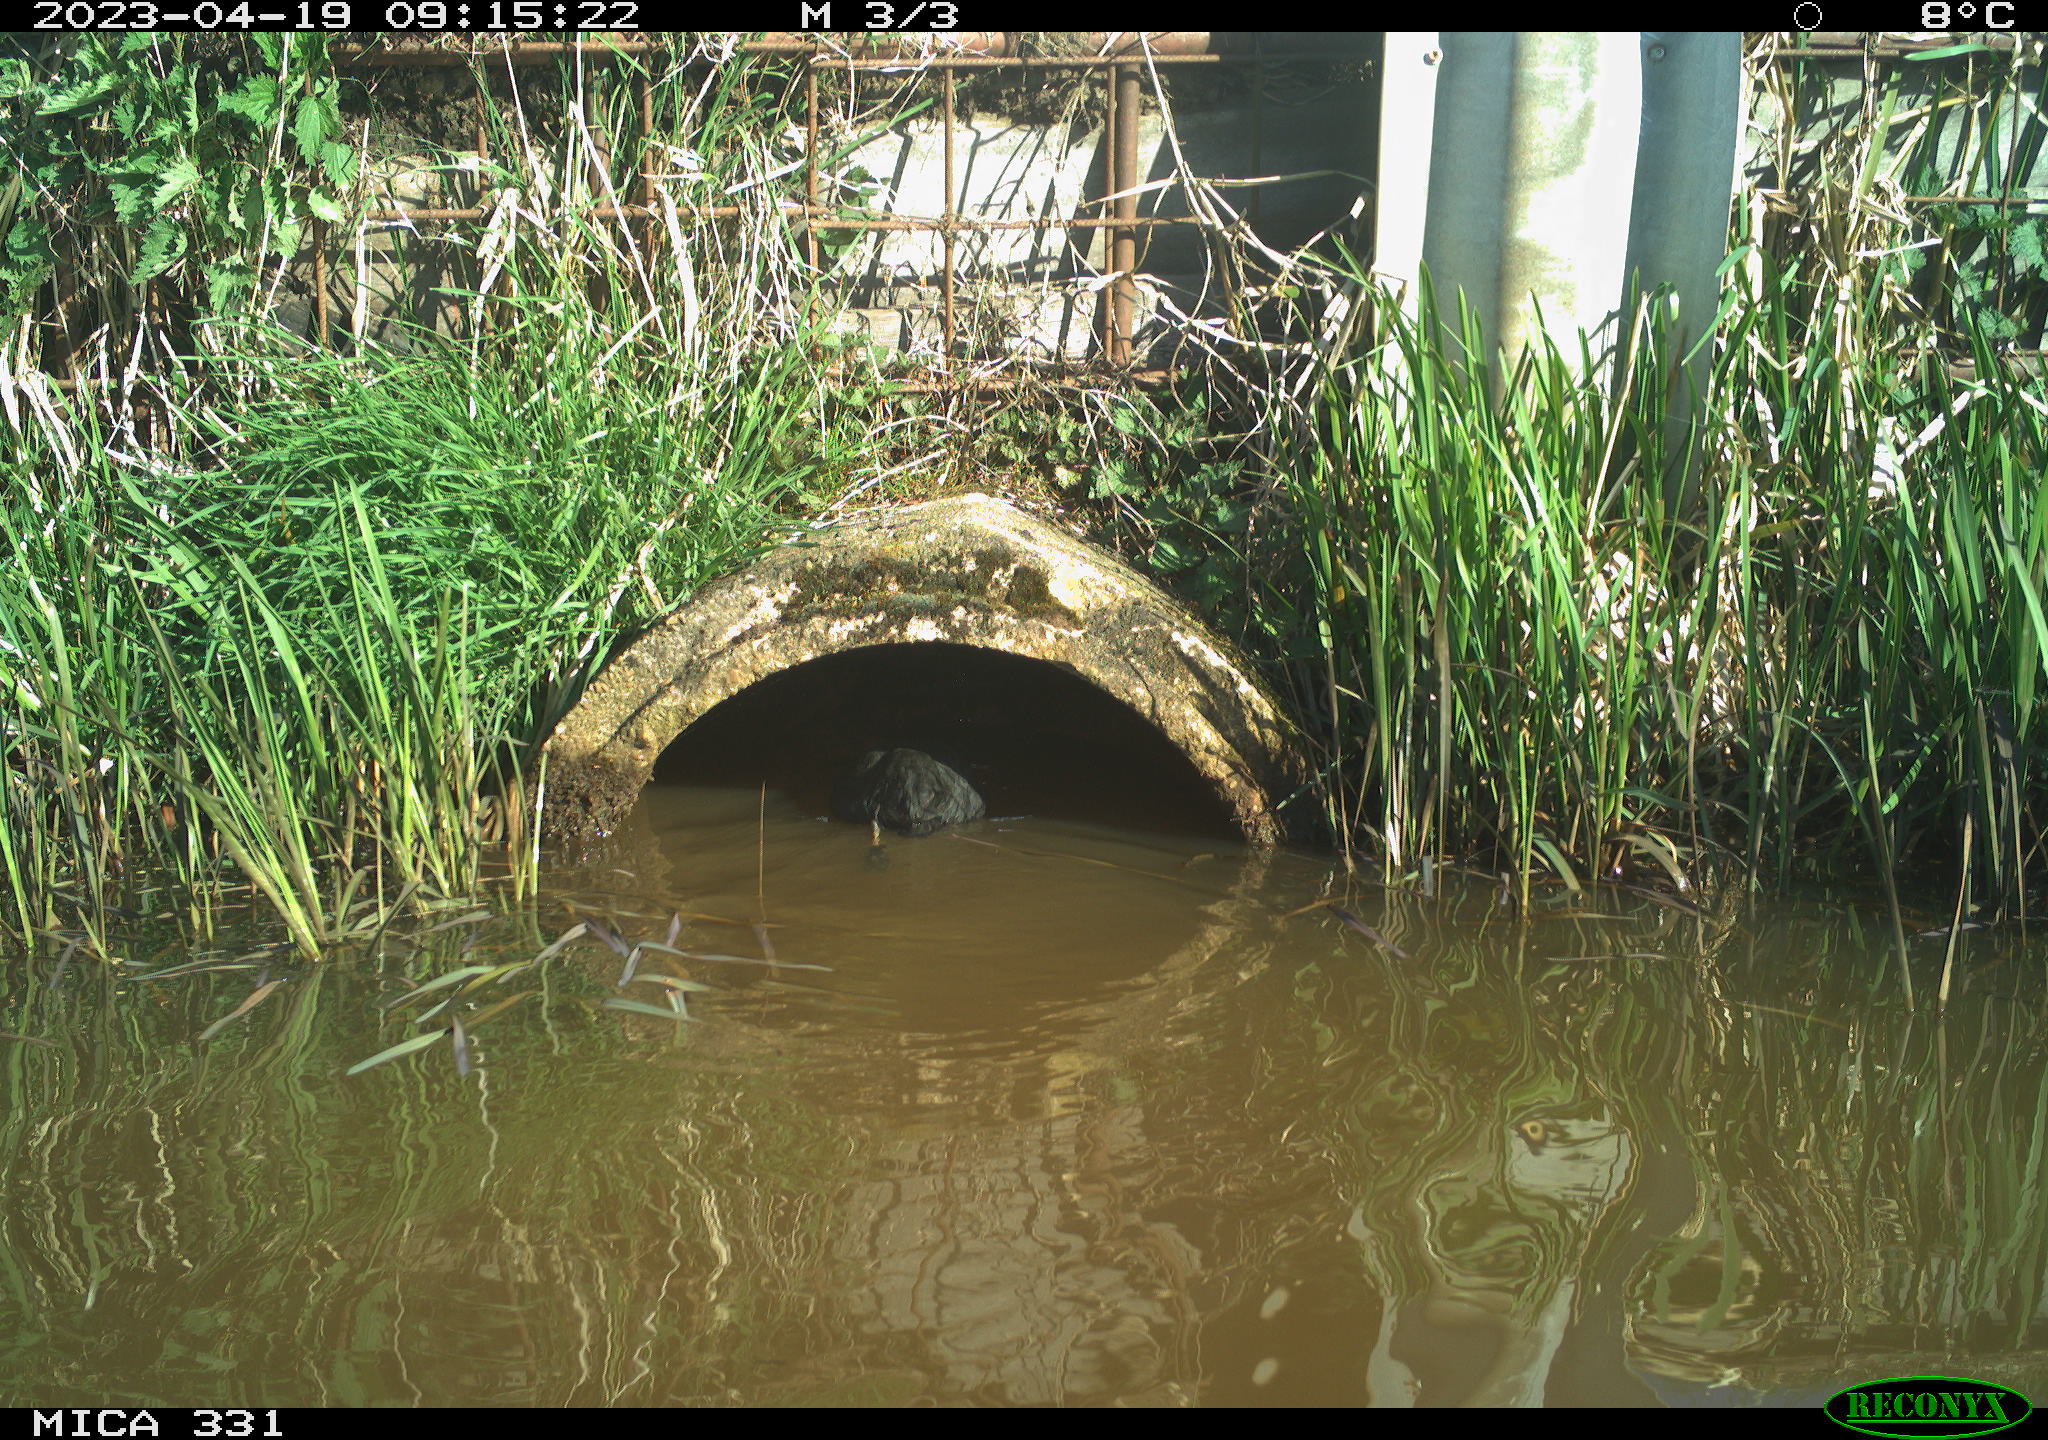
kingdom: Animalia
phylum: Chordata
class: Aves
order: Gruiformes
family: Rallidae
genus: Gallinula
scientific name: Gallinula chloropus
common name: Common moorhen
